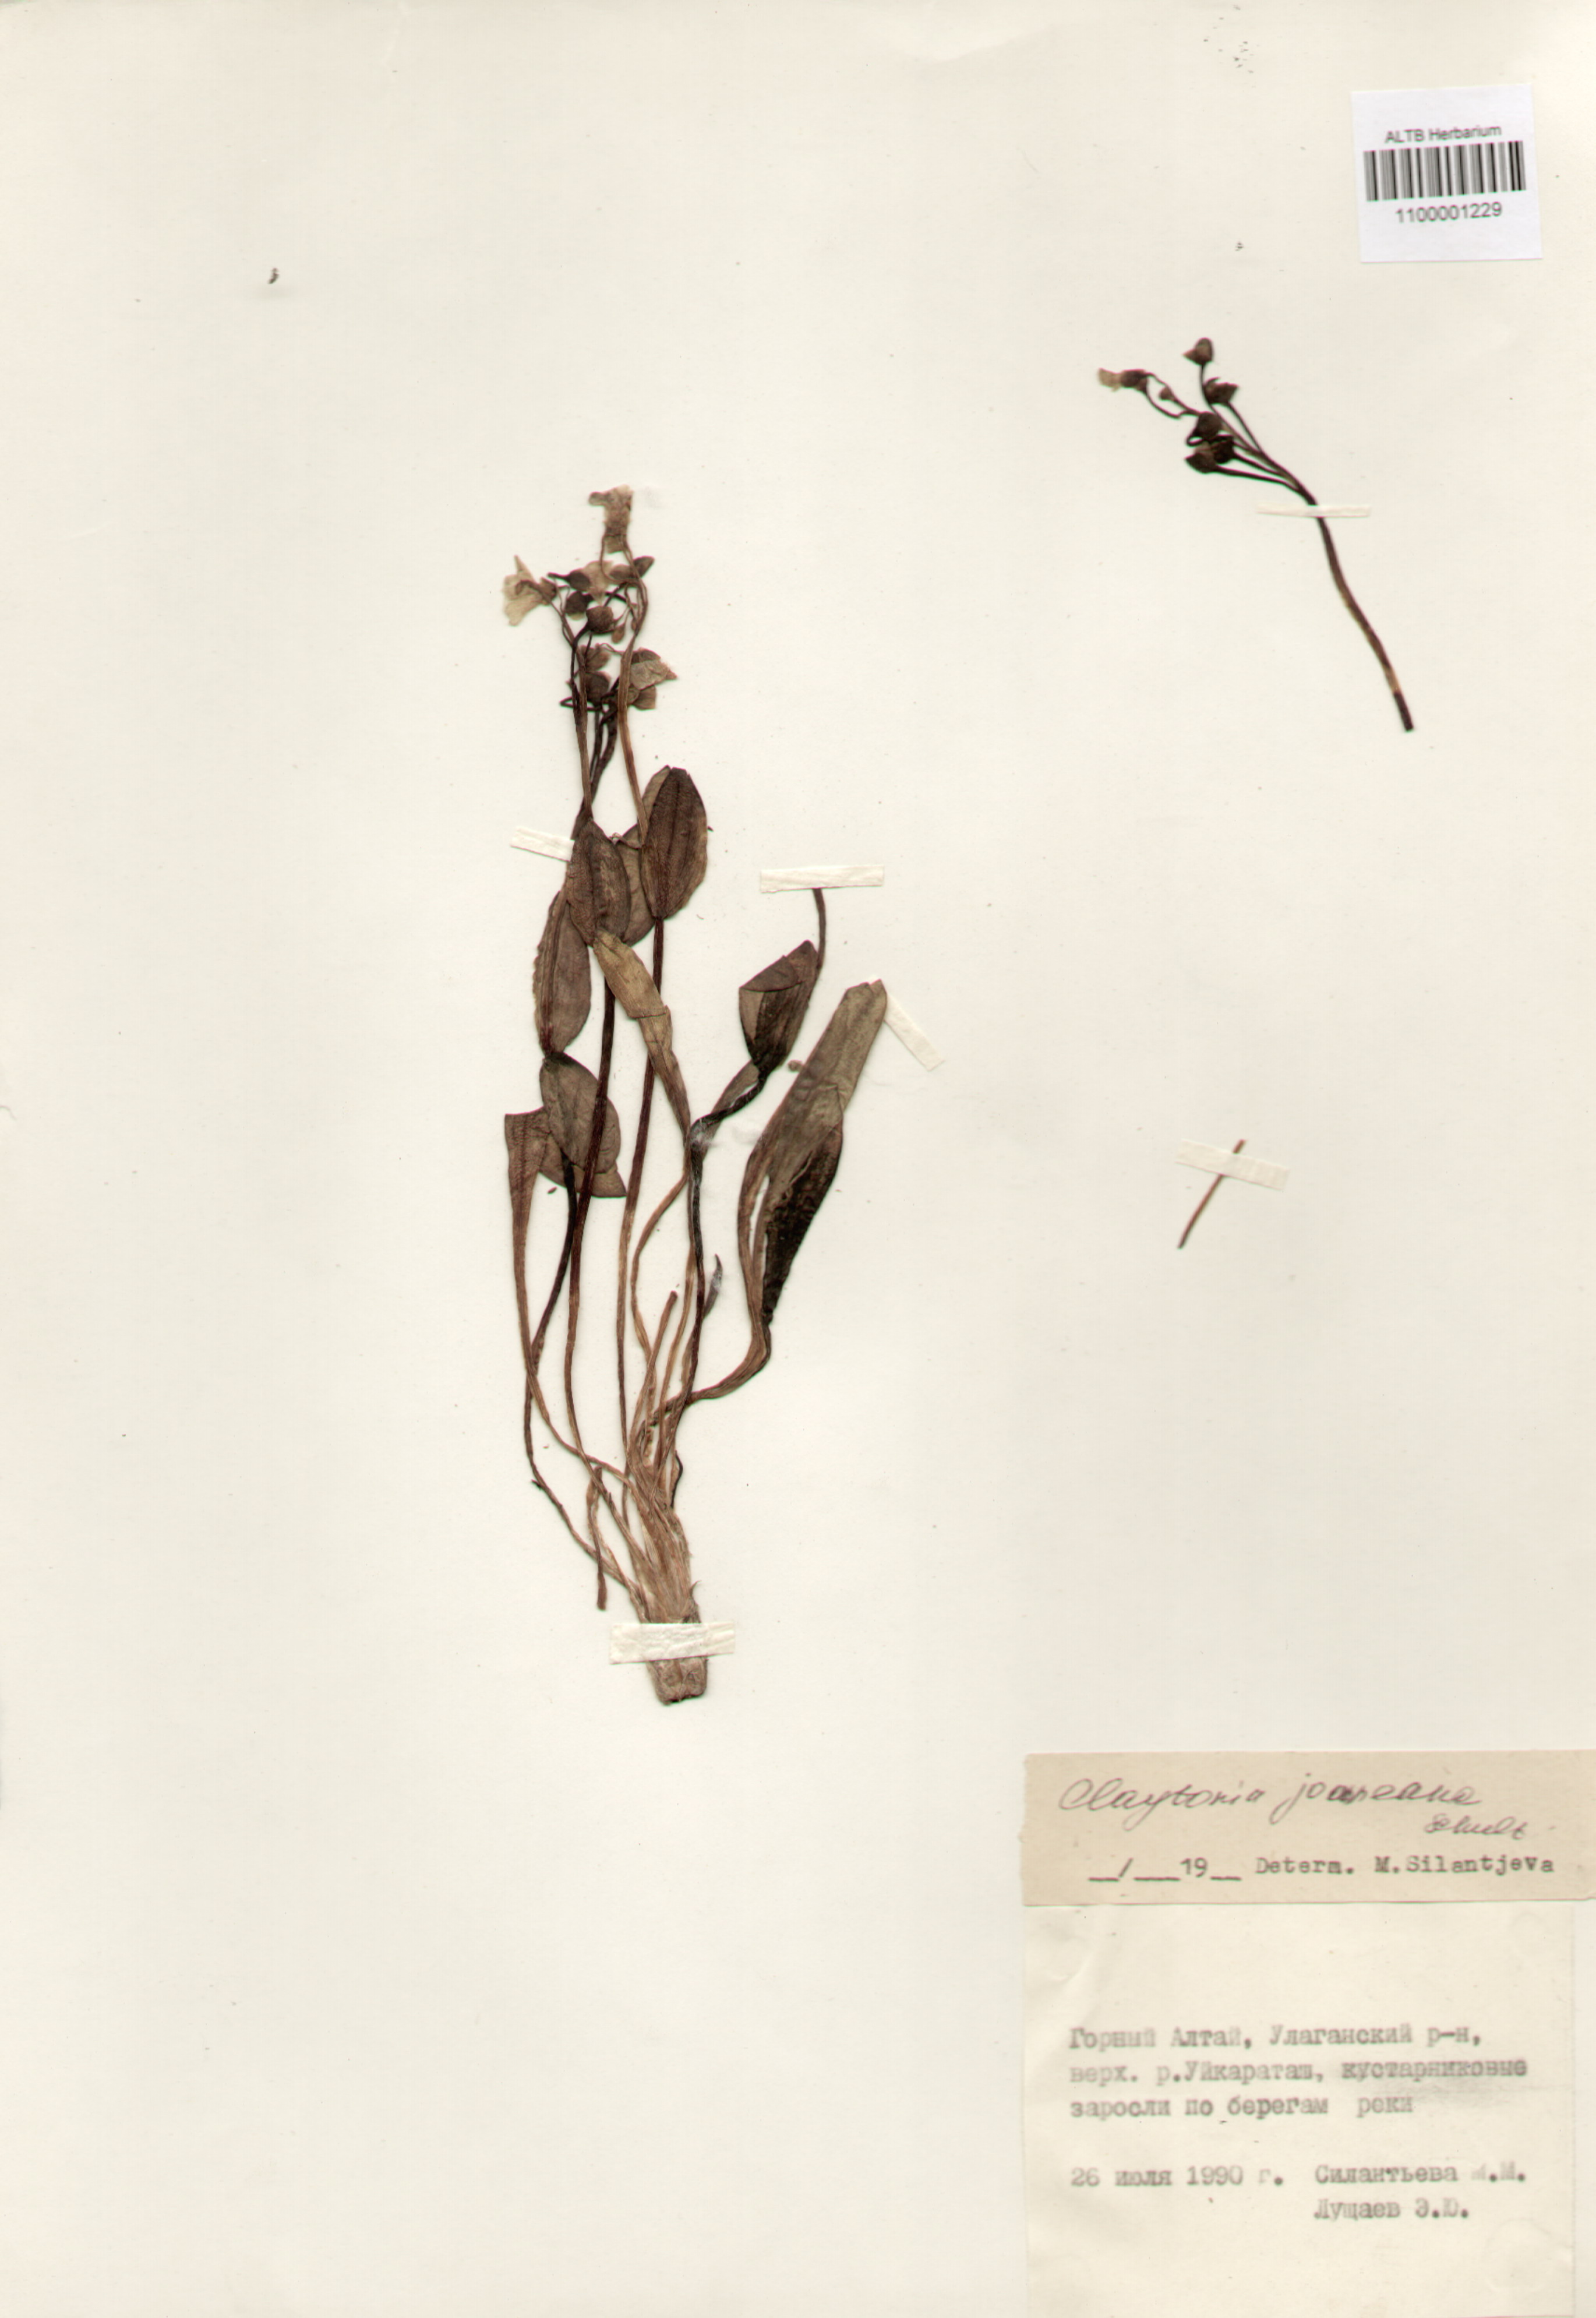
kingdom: Plantae
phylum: Tracheophyta
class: Magnoliopsida
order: Caryophyllales
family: Montiaceae
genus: Claytonia
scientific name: Claytonia joanneana
